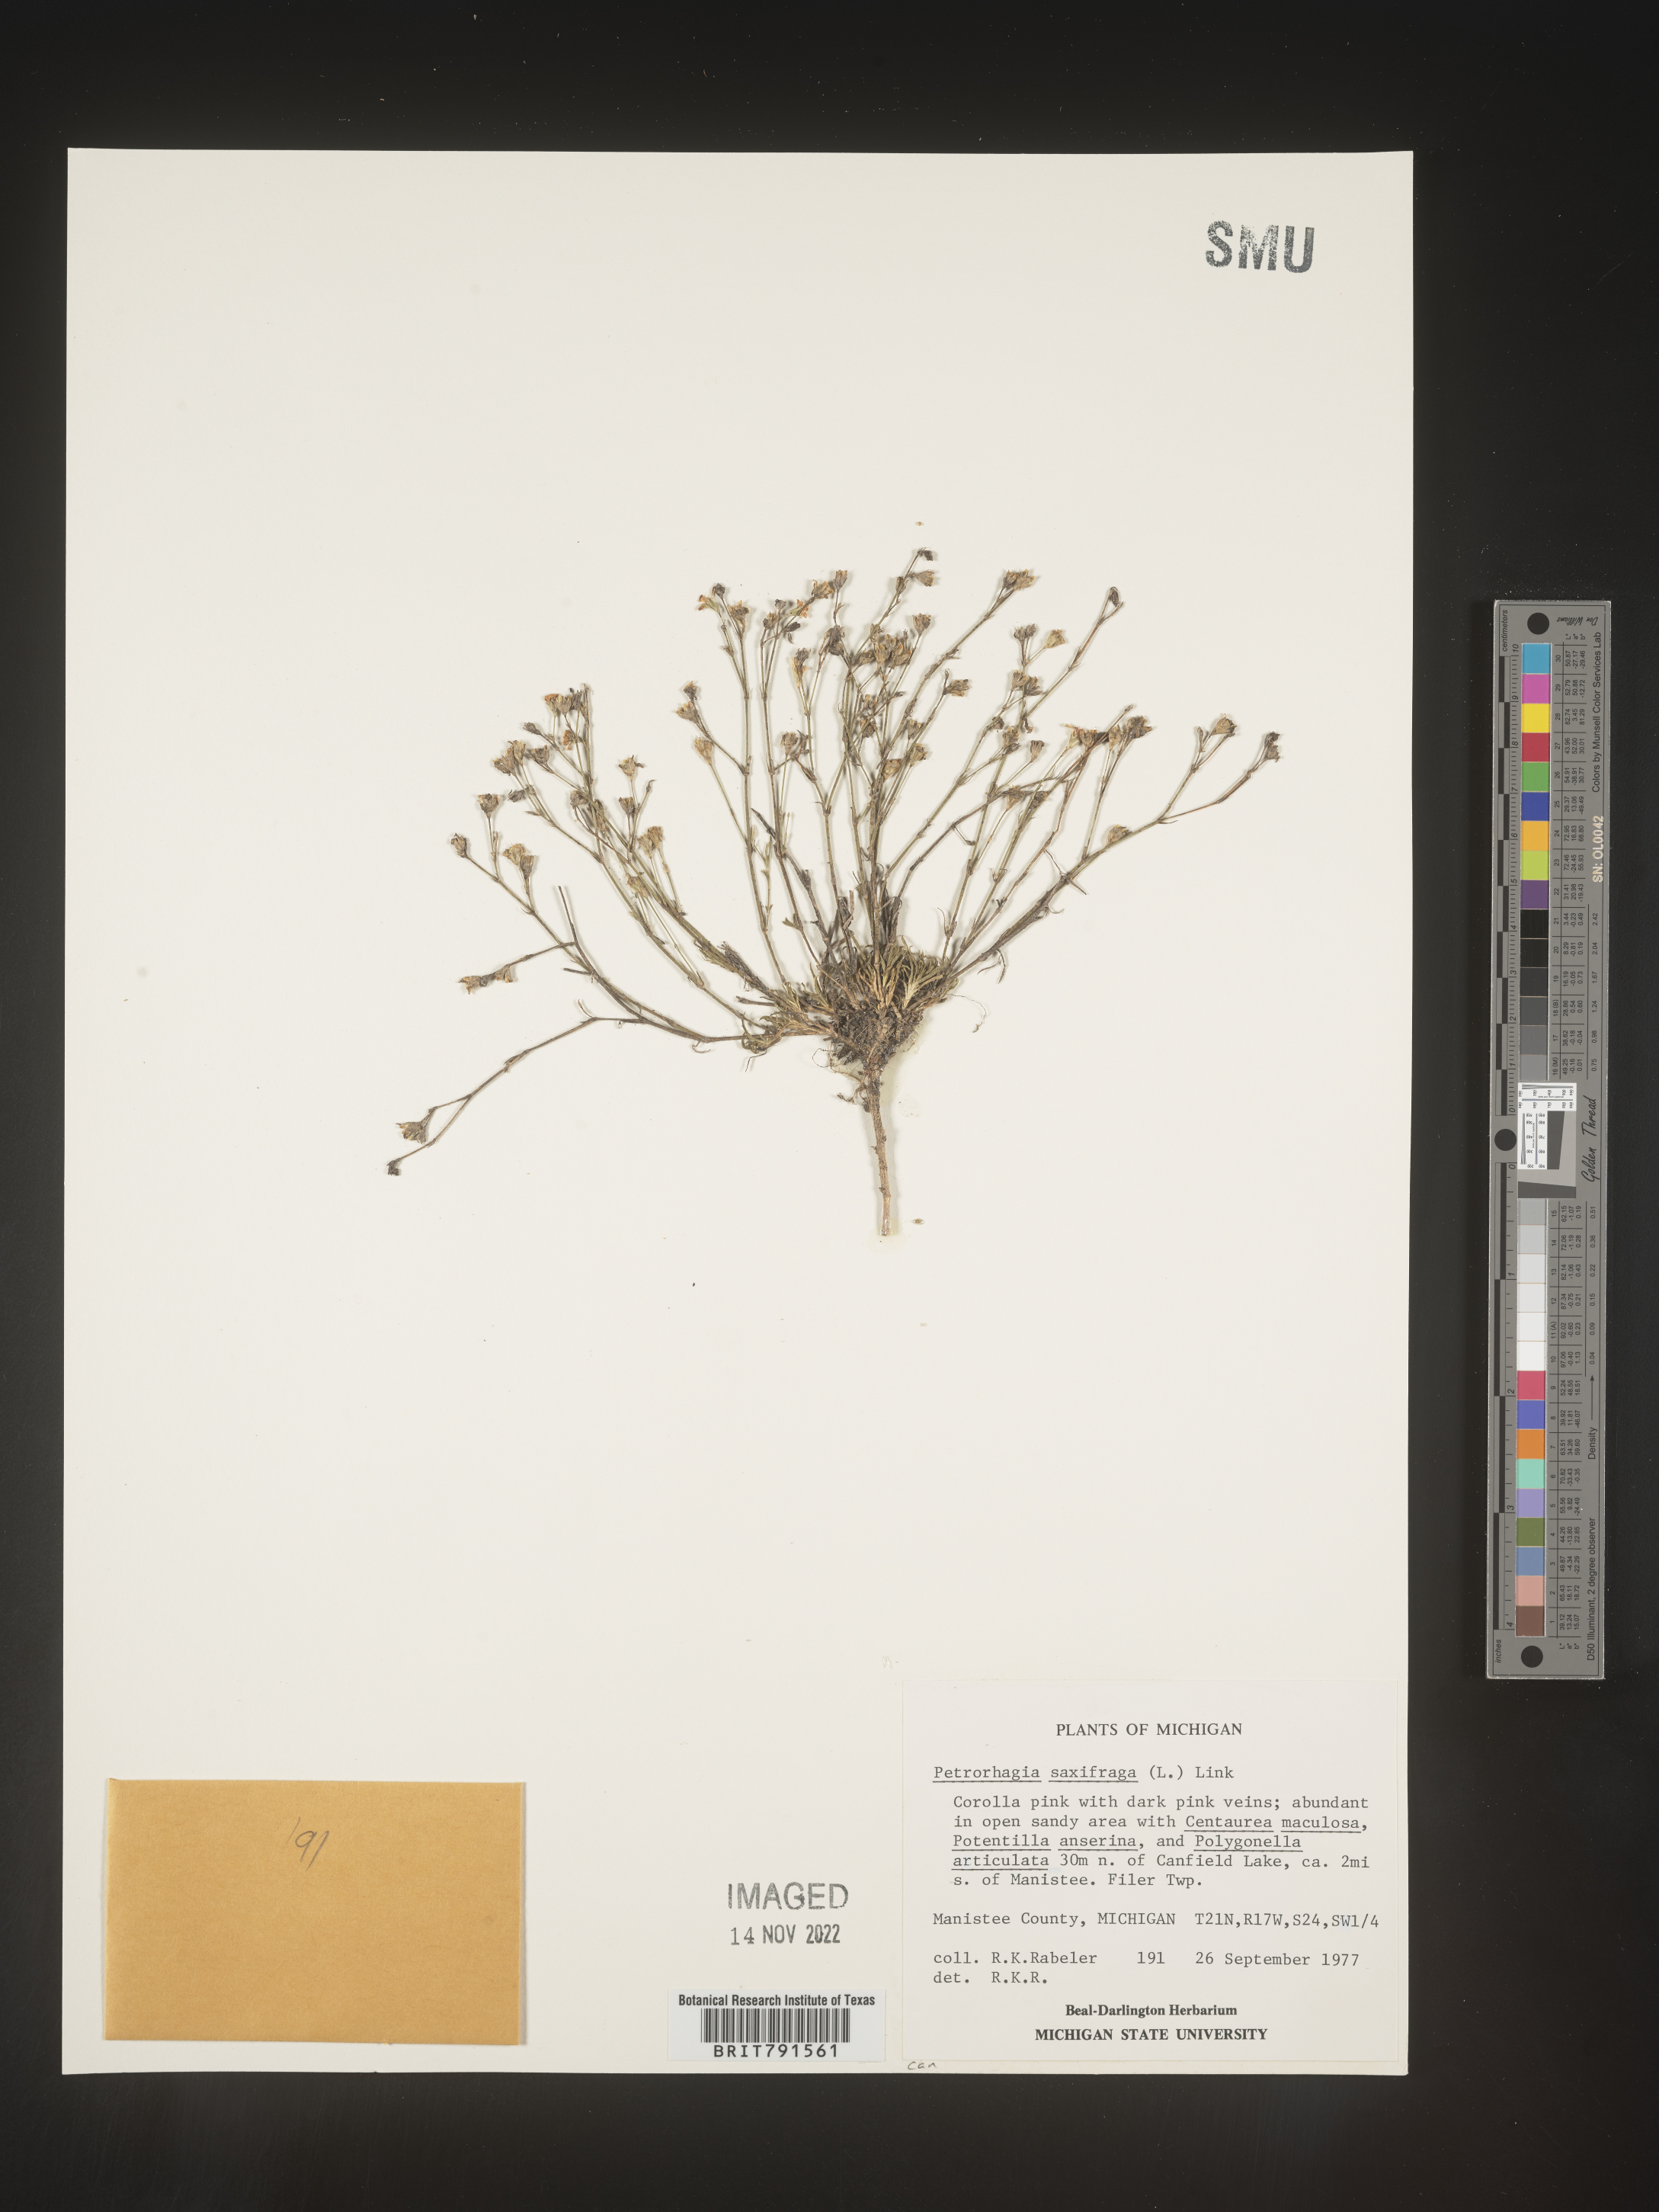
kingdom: Plantae
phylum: Tracheophyta
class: Magnoliopsida
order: Caryophyllales
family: Caryophyllaceae
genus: Petrorhagia
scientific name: Petrorhagia
